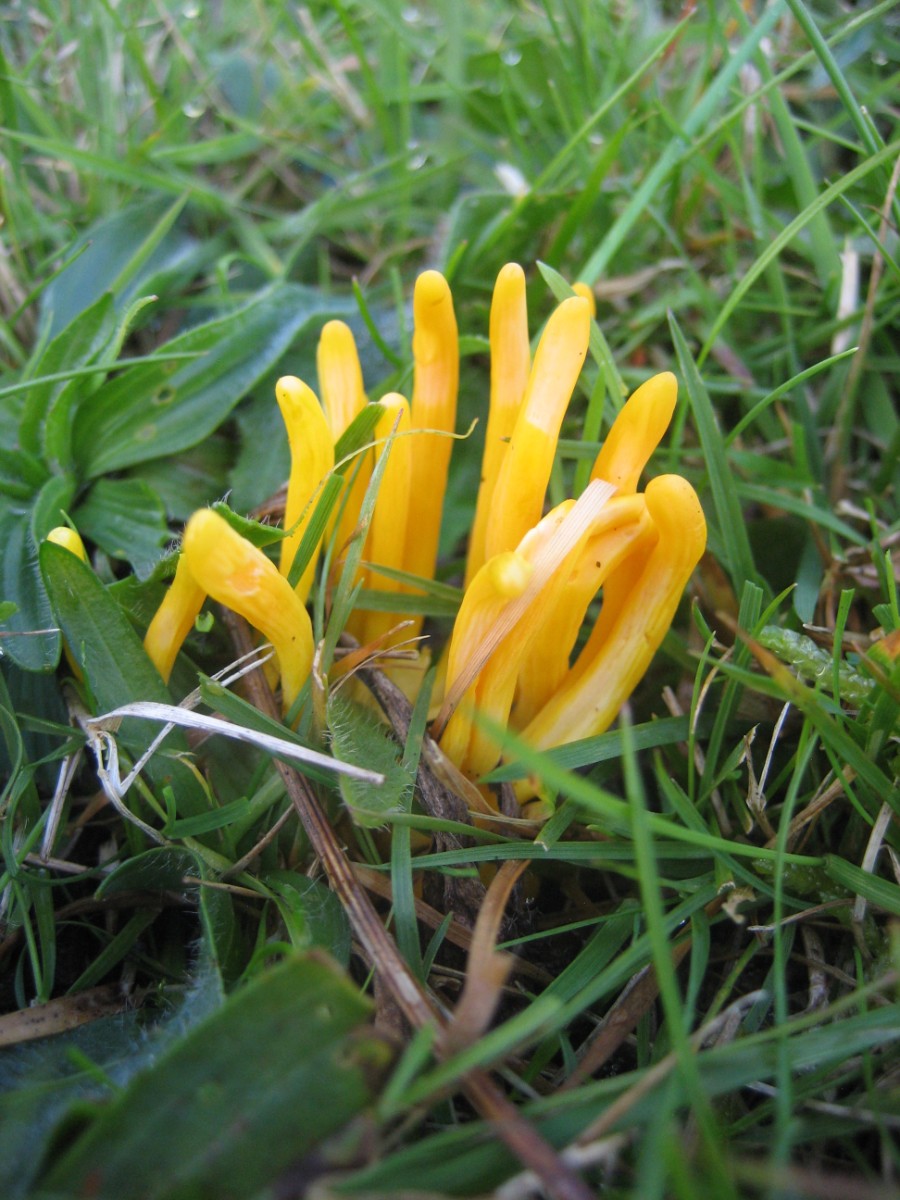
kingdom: Fungi
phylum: Basidiomycota
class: Agaricomycetes
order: Agaricales
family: Clavariaceae
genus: Clavulinopsis
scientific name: Clavulinopsis
